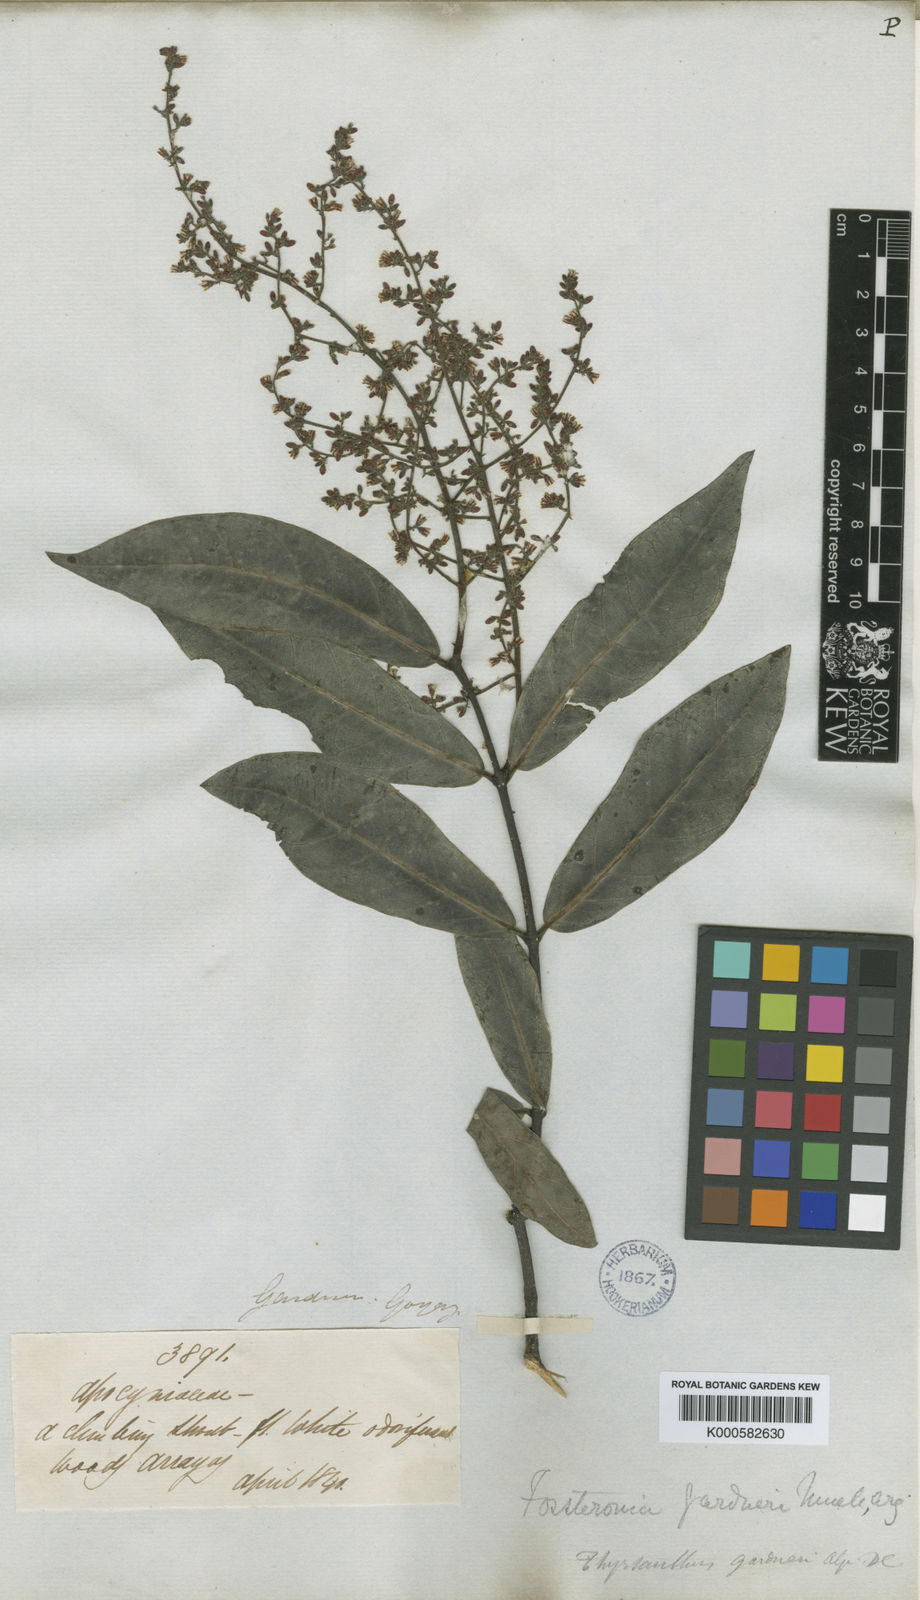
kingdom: Plantae
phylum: Tracheophyta
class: Magnoliopsida
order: Gentianales
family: Apocynaceae
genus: Forsteronia
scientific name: Forsteronia
